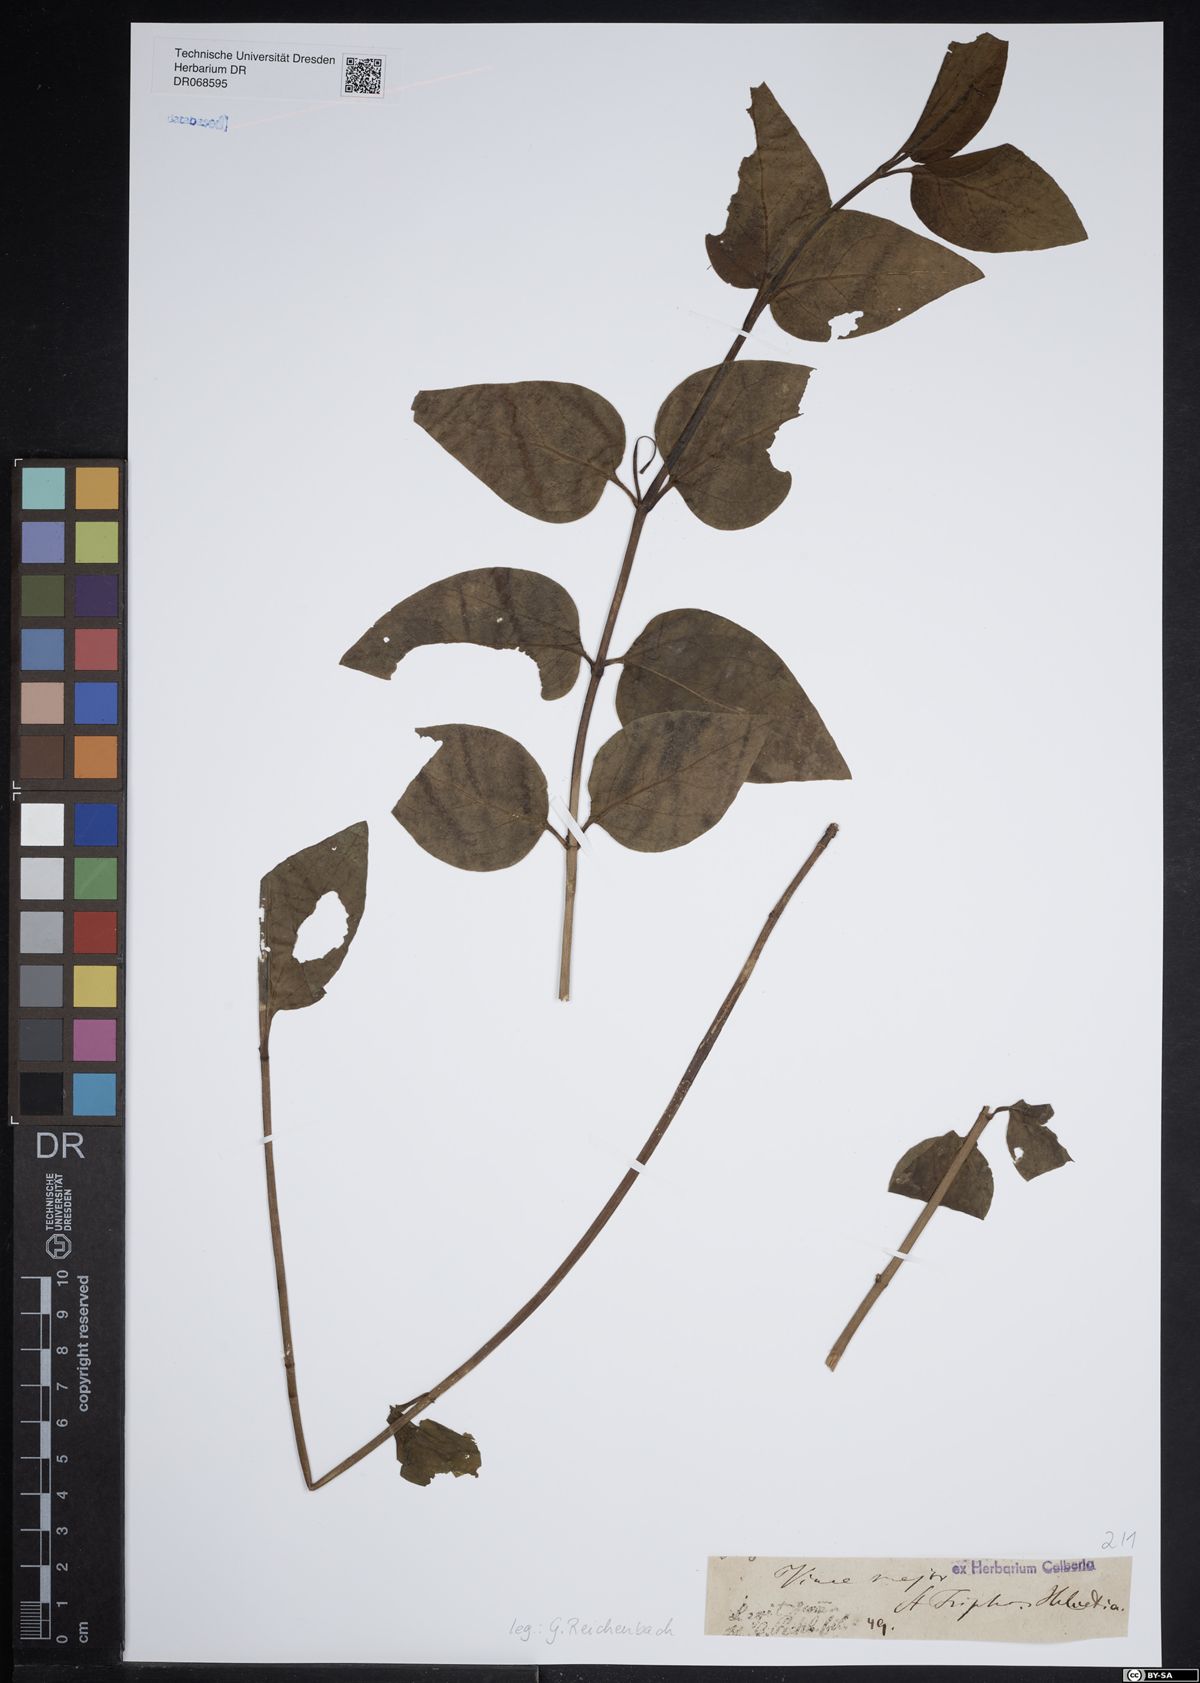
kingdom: Plantae
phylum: Tracheophyta
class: Magnoliopsida
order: Gentianales
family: Apocynaceae
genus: Vinca
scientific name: Vinca major
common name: Greater periwinkle
